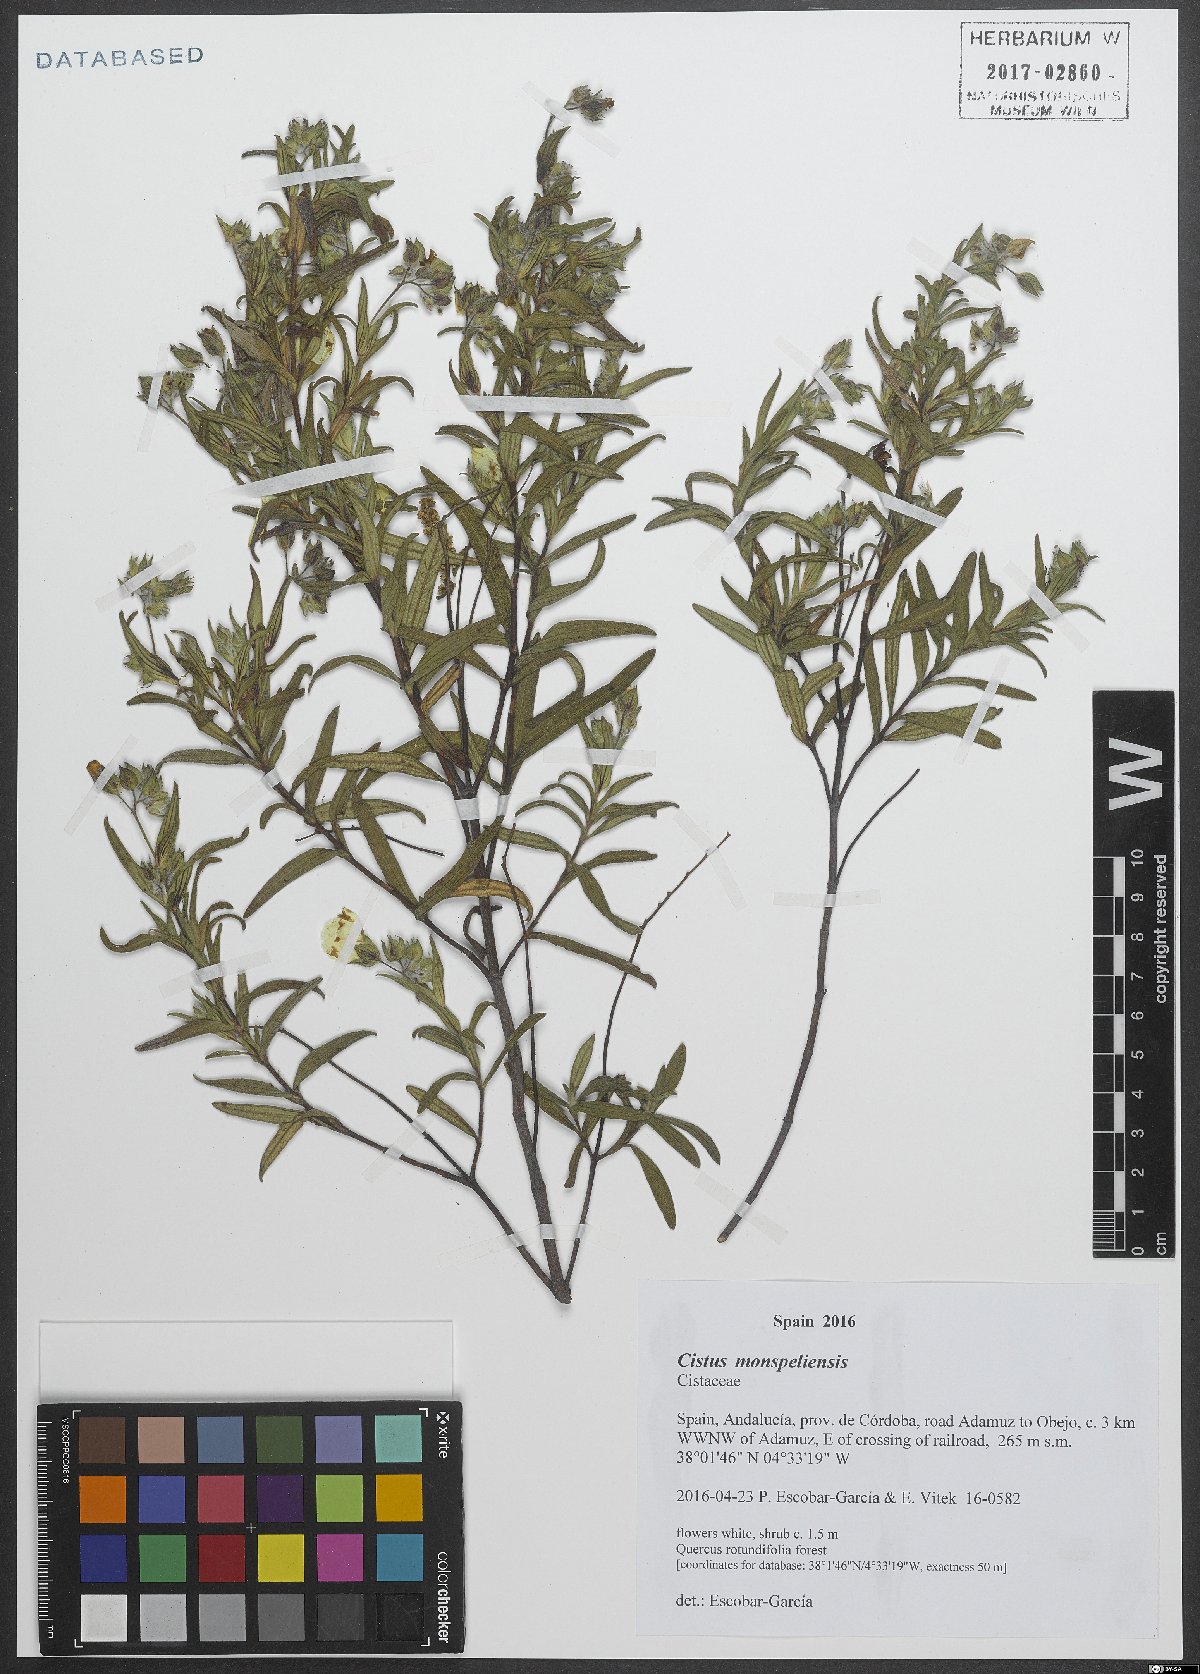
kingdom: Plantae
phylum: Tracheophyta
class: Magnoliopsida
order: Malvales
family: Cistaceae
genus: Cistus
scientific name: Cistus monspeliensis
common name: Montpelier cistus
